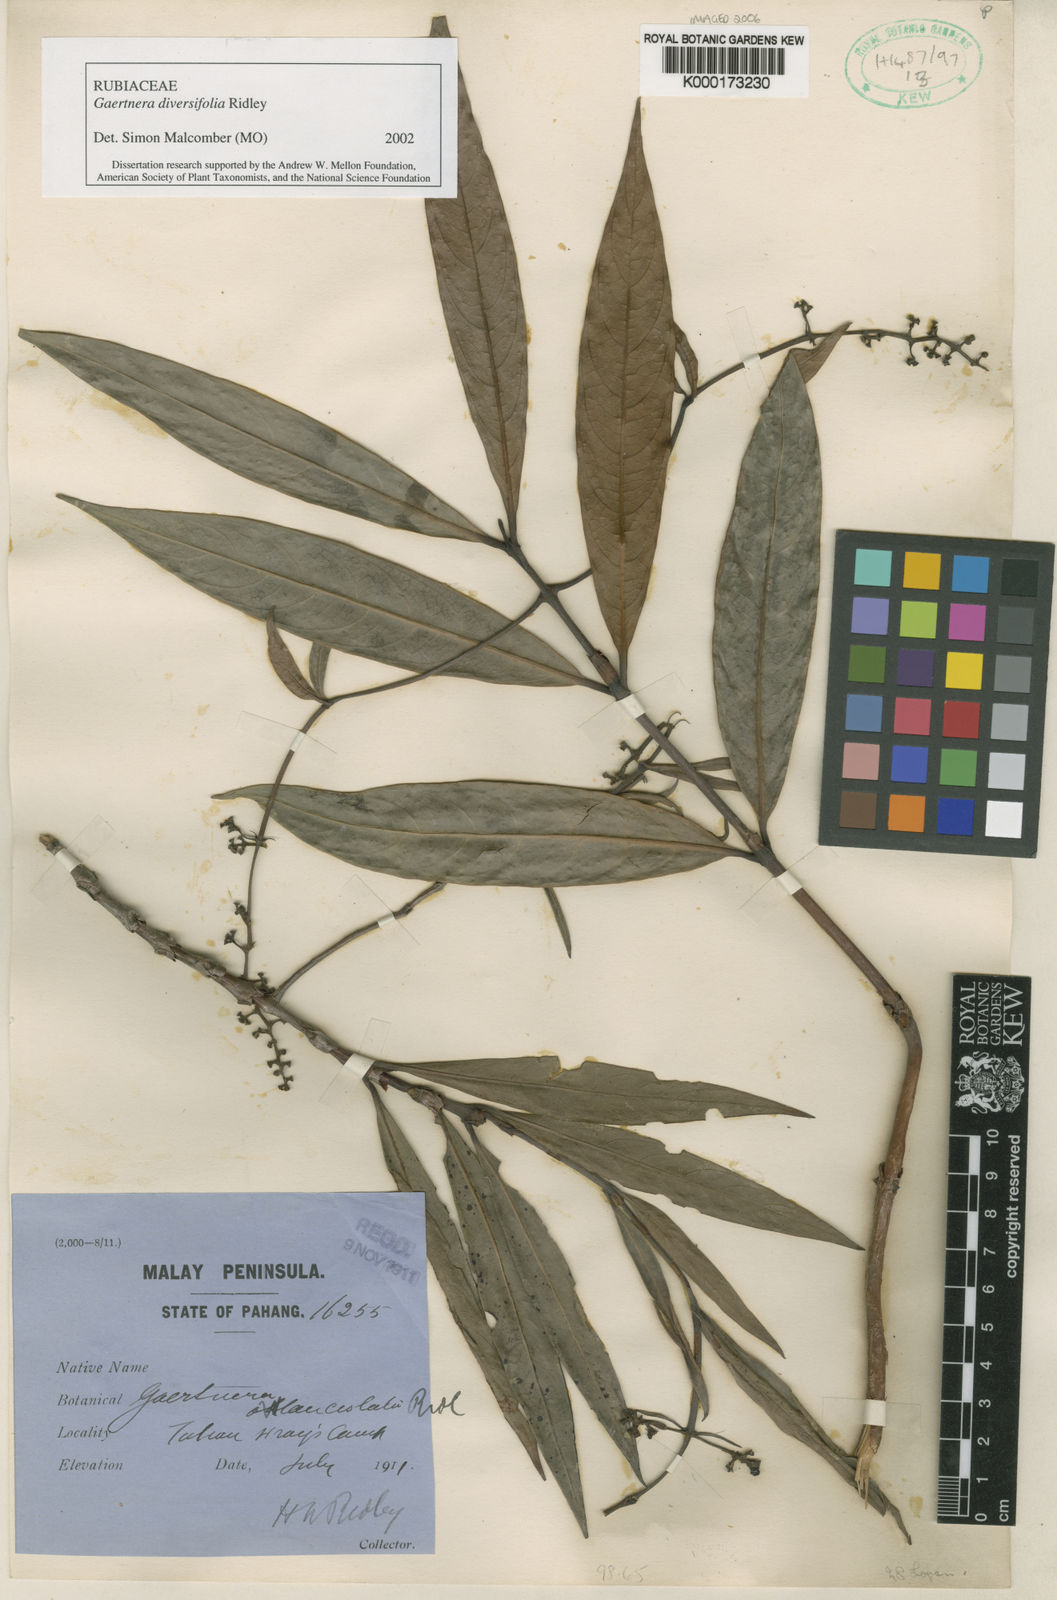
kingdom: Plantae
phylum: Tracheophyta
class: Magnoliopsida
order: Gentianales
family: Rubiaceae
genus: Gaertnera
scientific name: Gaertnera diversifolia
